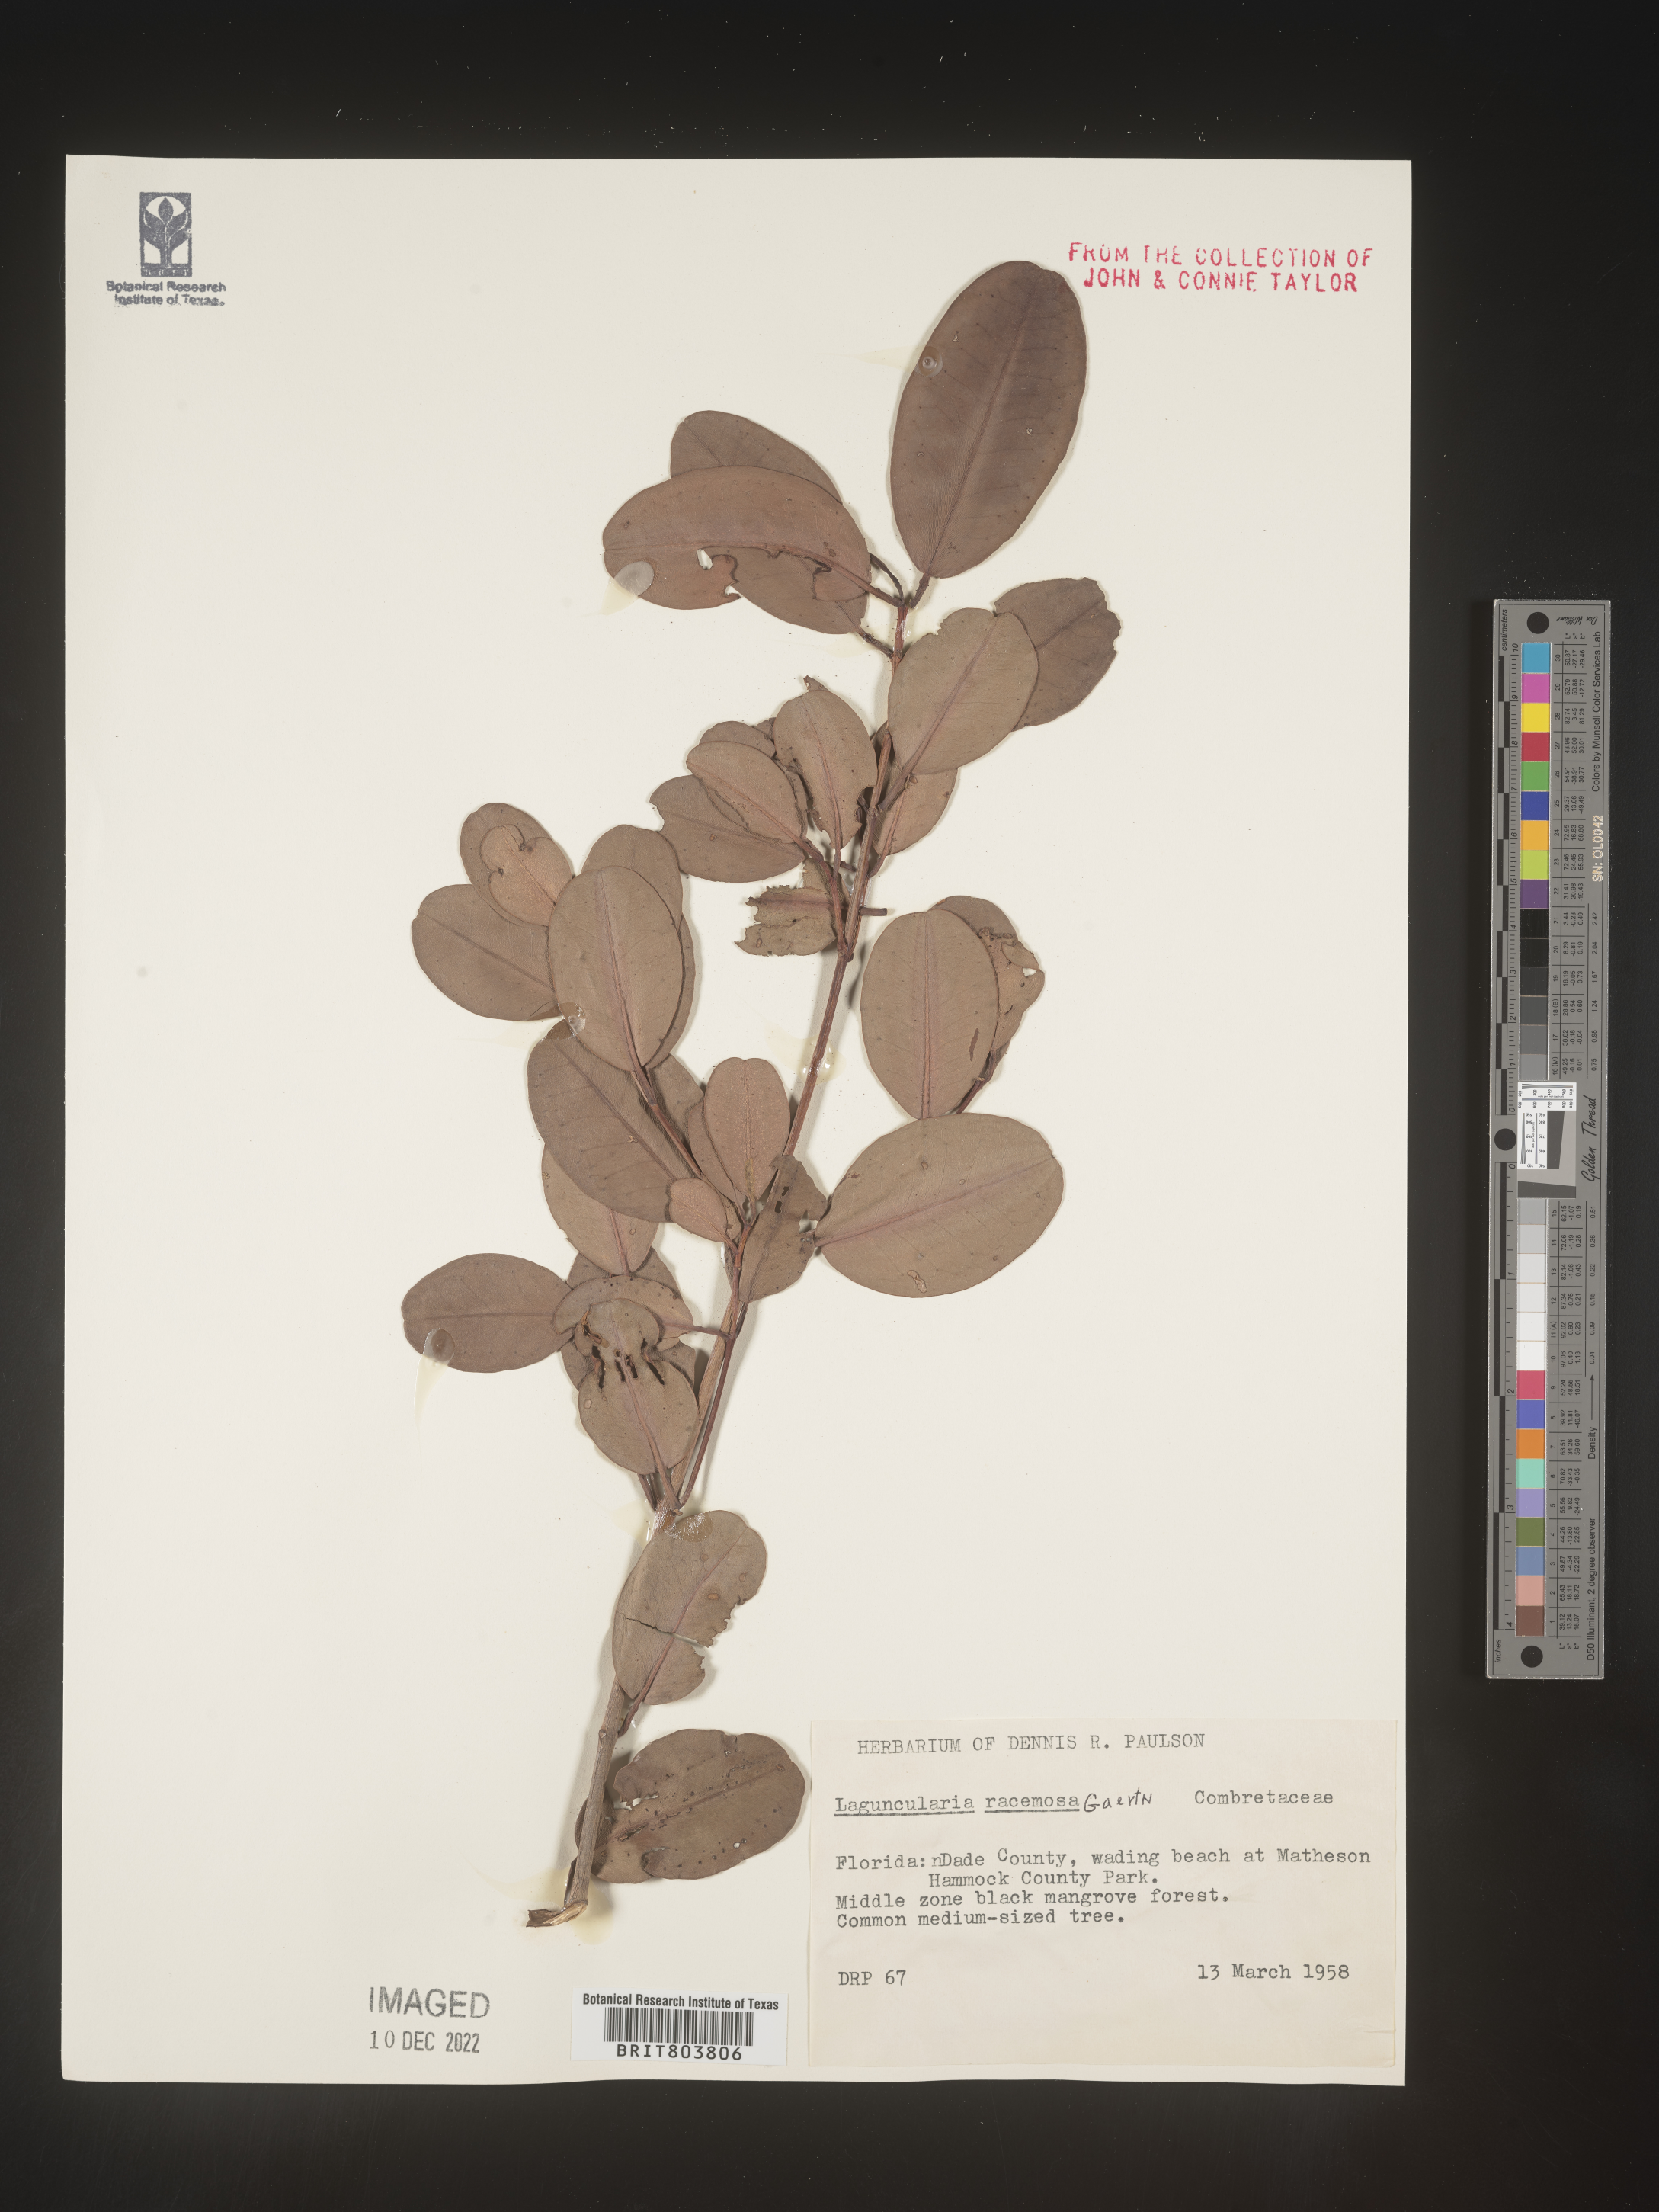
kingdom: Plantae
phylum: Tracheophyta
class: Magnoliopsida
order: Myrtales
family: Combretaceae
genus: Laguncularia
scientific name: Laguncularia
